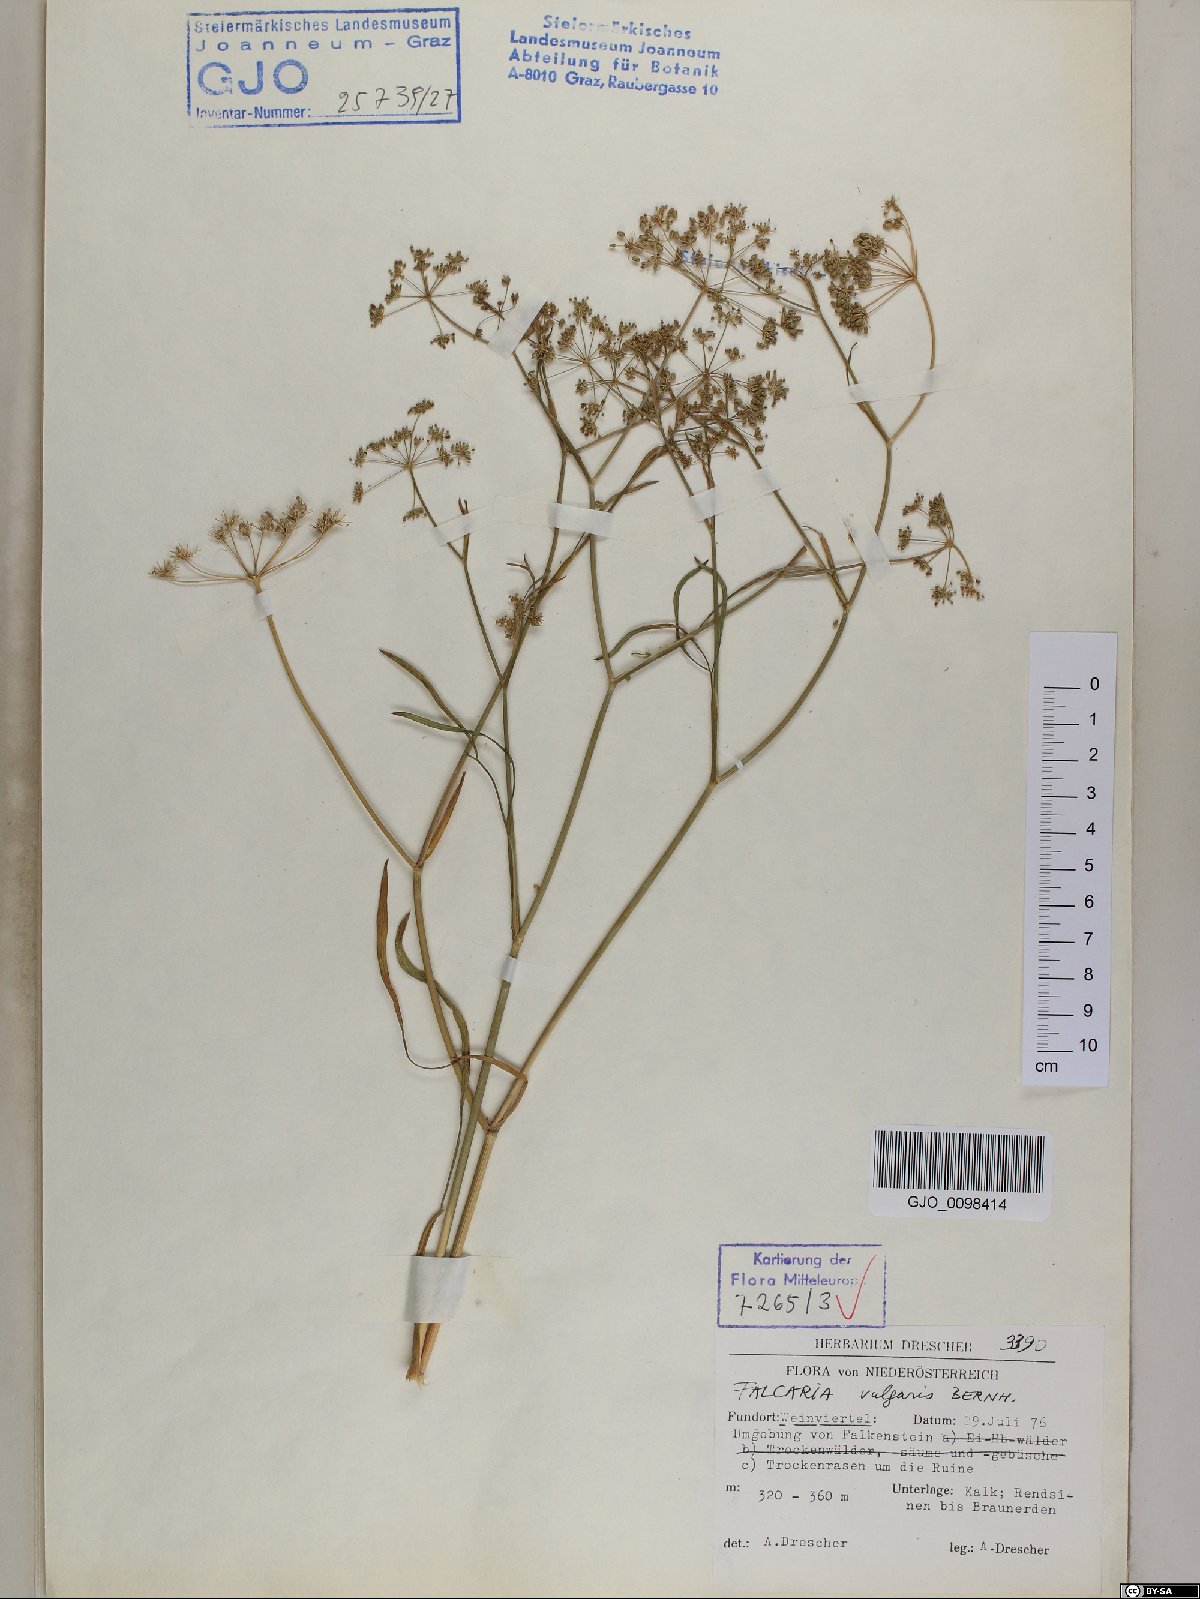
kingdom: Plantae
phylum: Tracheophyta
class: Magnoliopsida
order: Apiales
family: Apiaceae
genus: Falcaria
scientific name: Falcaria vulgaris
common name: Longleaf
